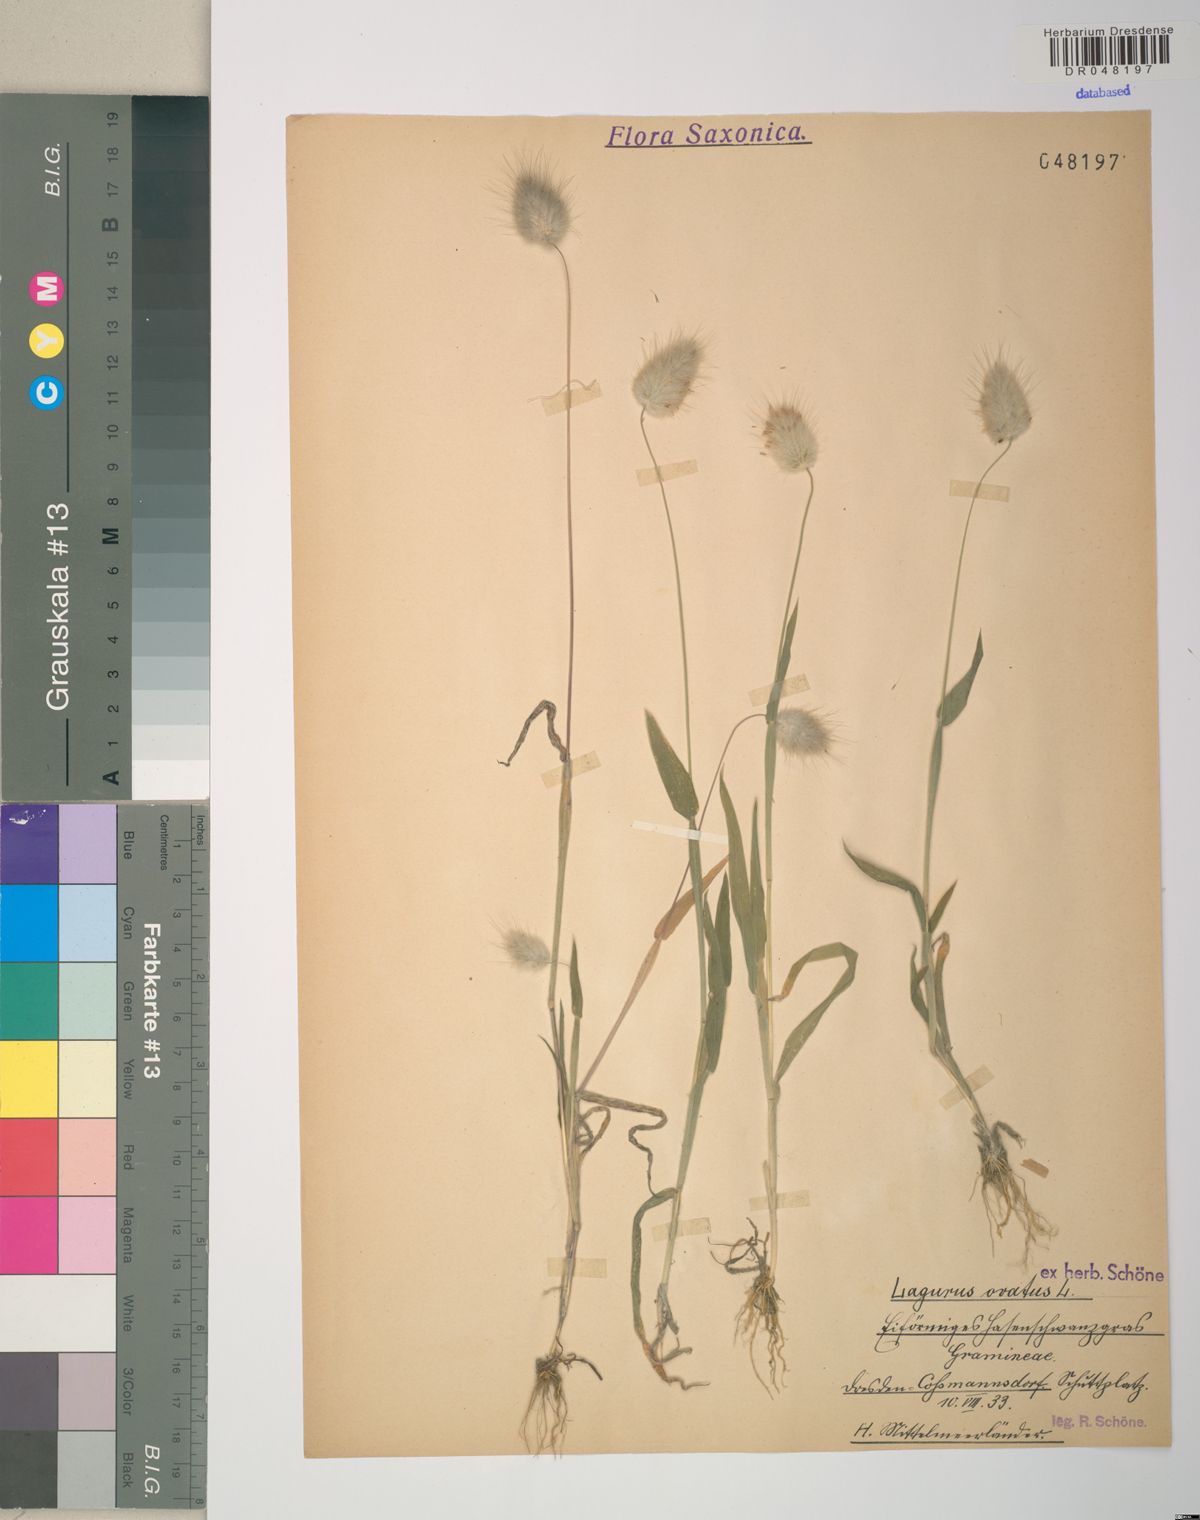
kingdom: Plantae
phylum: Tracheophyta
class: Liliopsida
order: Poales
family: Poaceae
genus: Lagurus
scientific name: Lagurus ovatus
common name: Hare's-tail
